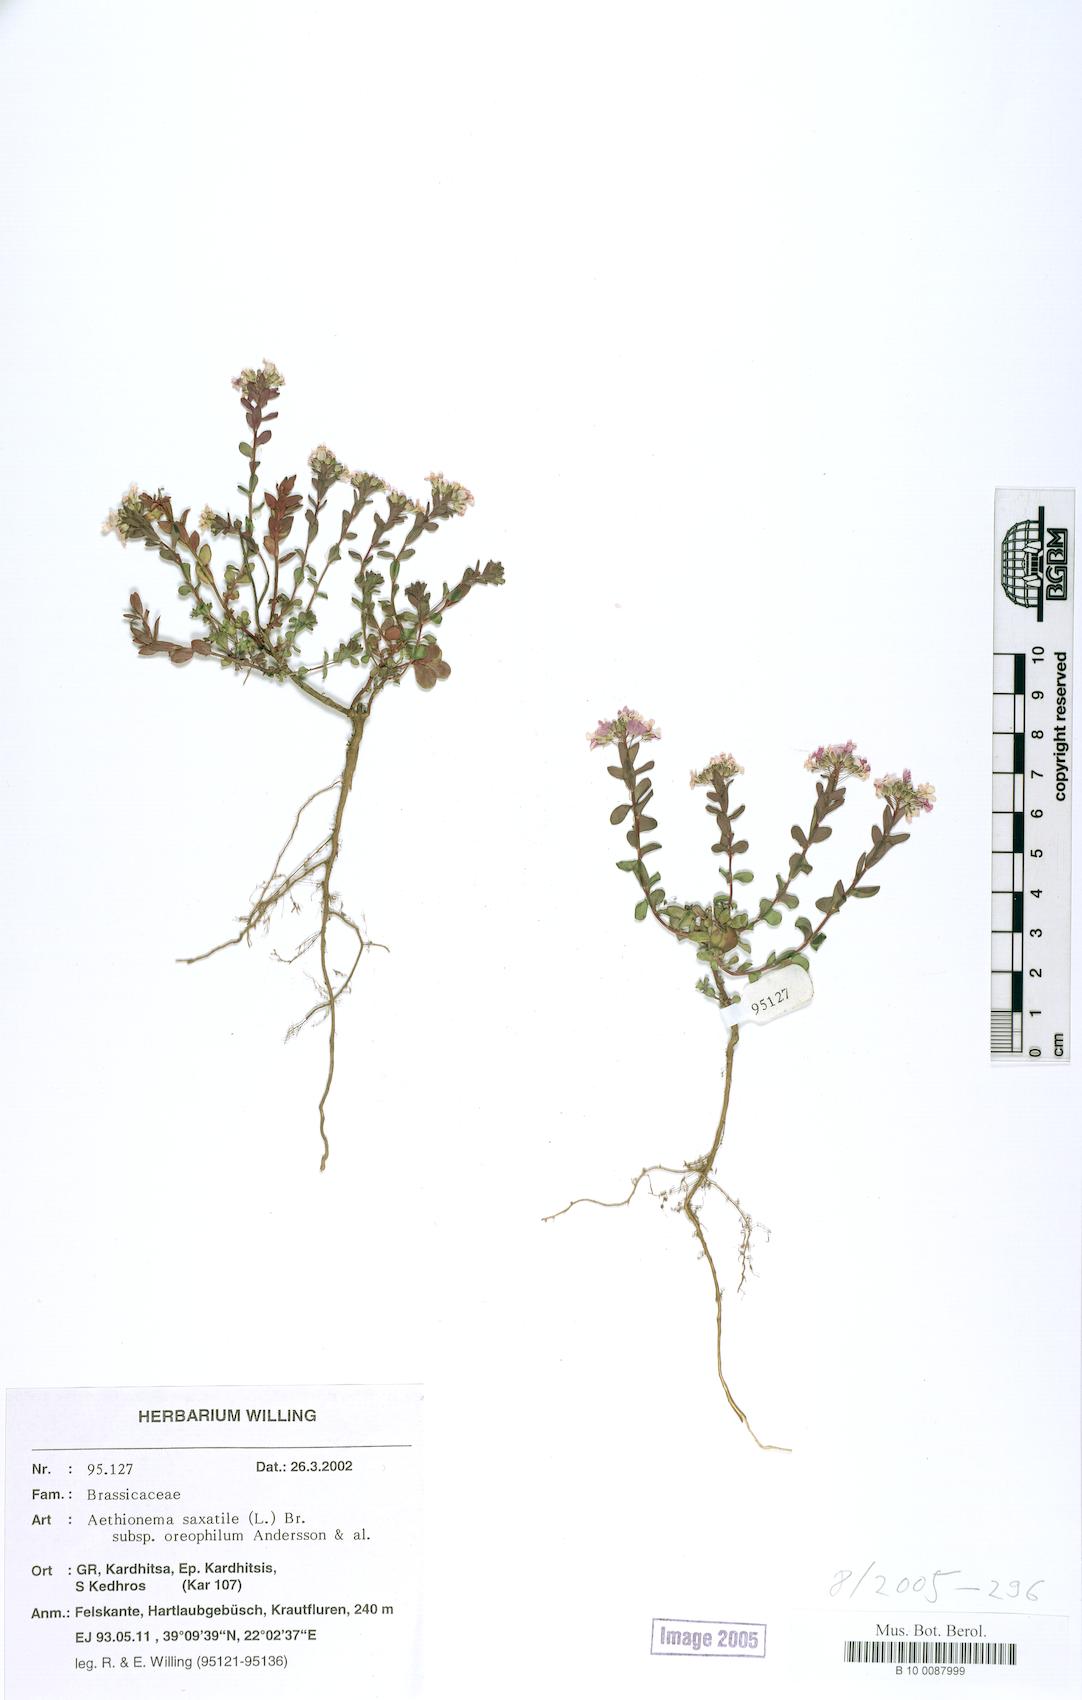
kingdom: Plantae
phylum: Tracheophyta
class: Magnoliopsida
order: Brassicales
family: Brassicaceae
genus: Aethionema
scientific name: Aethionema saxatile
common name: Burnt candytuft
